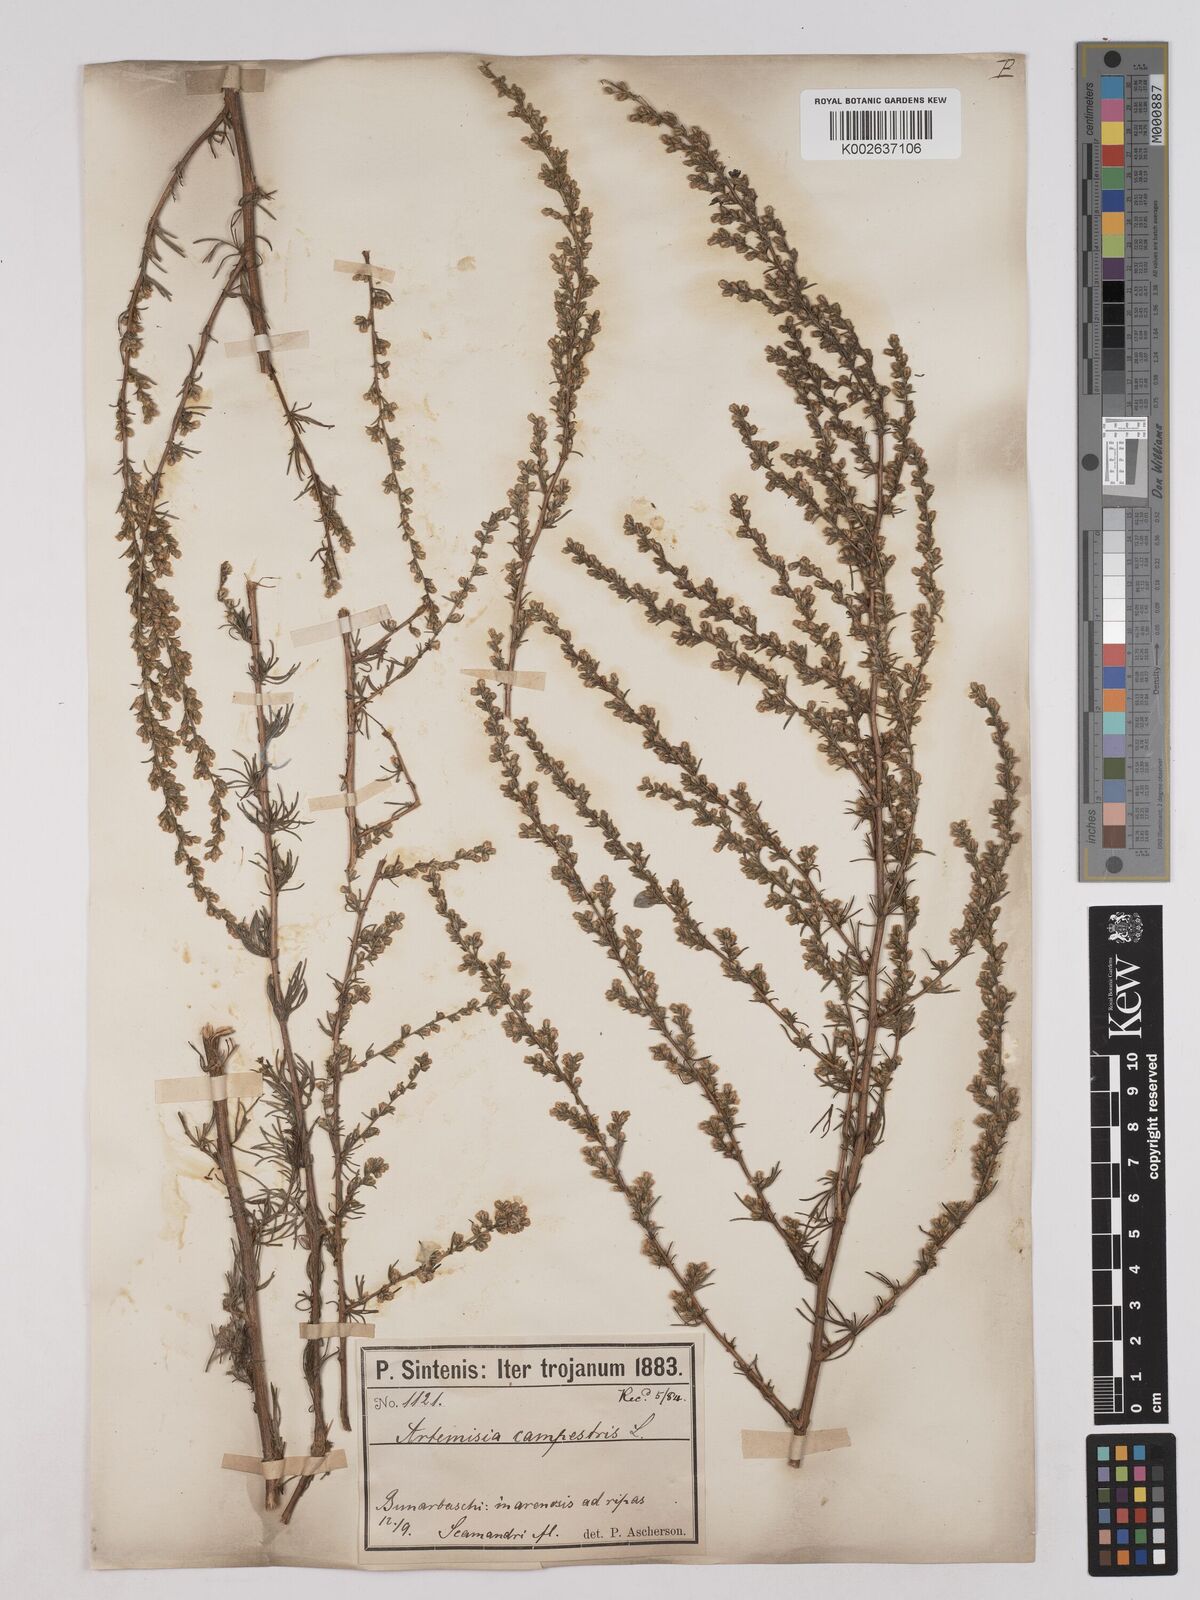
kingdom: Plantae
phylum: Tracheophyta
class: Magnoliopsida
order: Asterales
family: Asteraceae
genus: Artemisia
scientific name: Artemisia marschalliana
